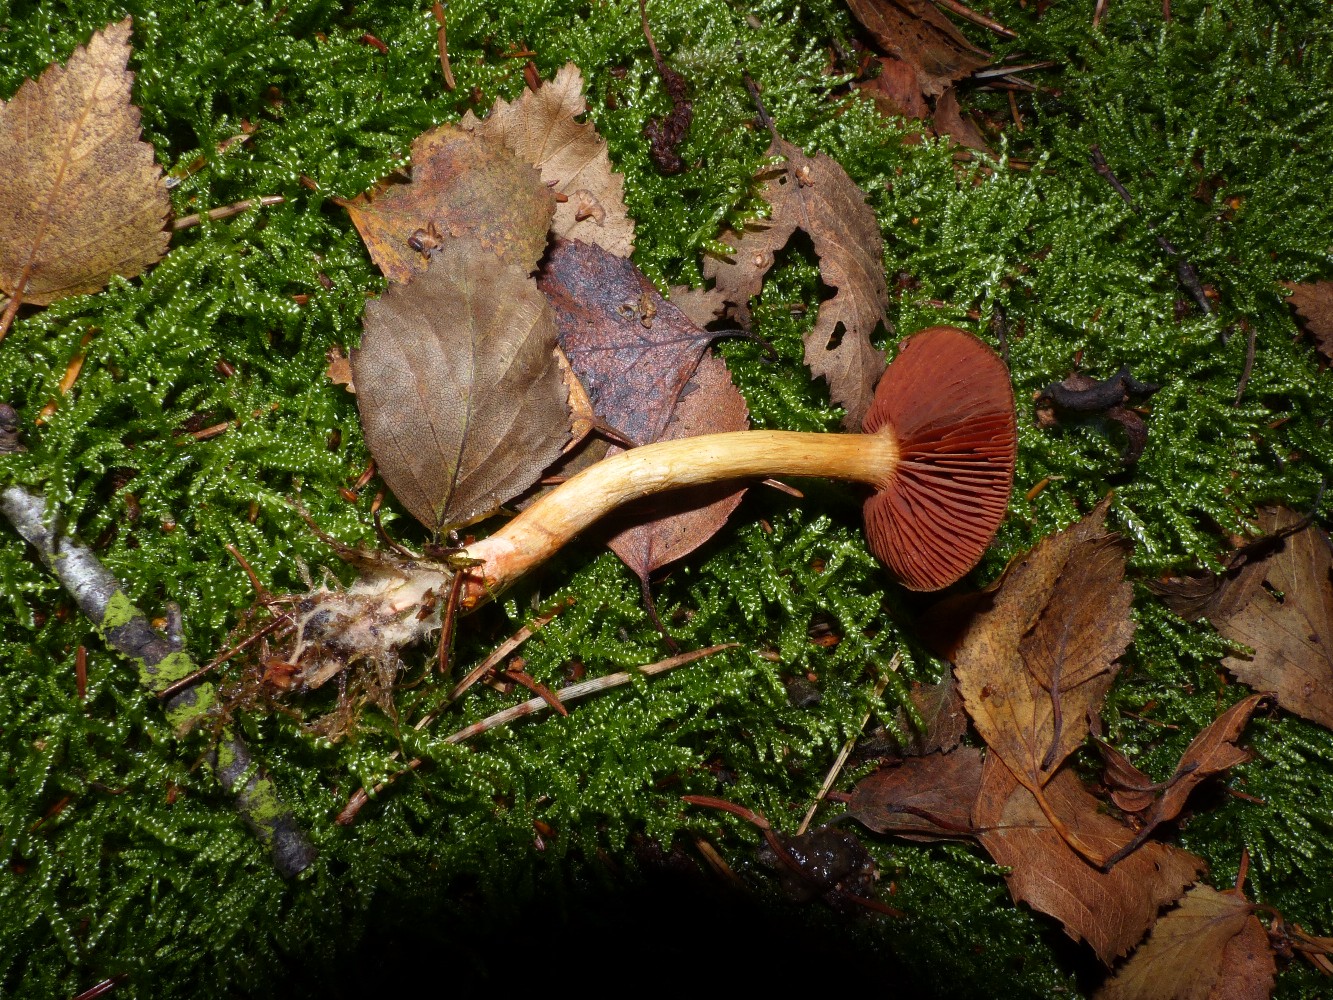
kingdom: Fungi
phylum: Basidiomycota
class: Agaricomycetes
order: Agaricales
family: Cortinariaceae
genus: Cortinarius
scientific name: Cortinarius
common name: cinnoberbladet slørhat
